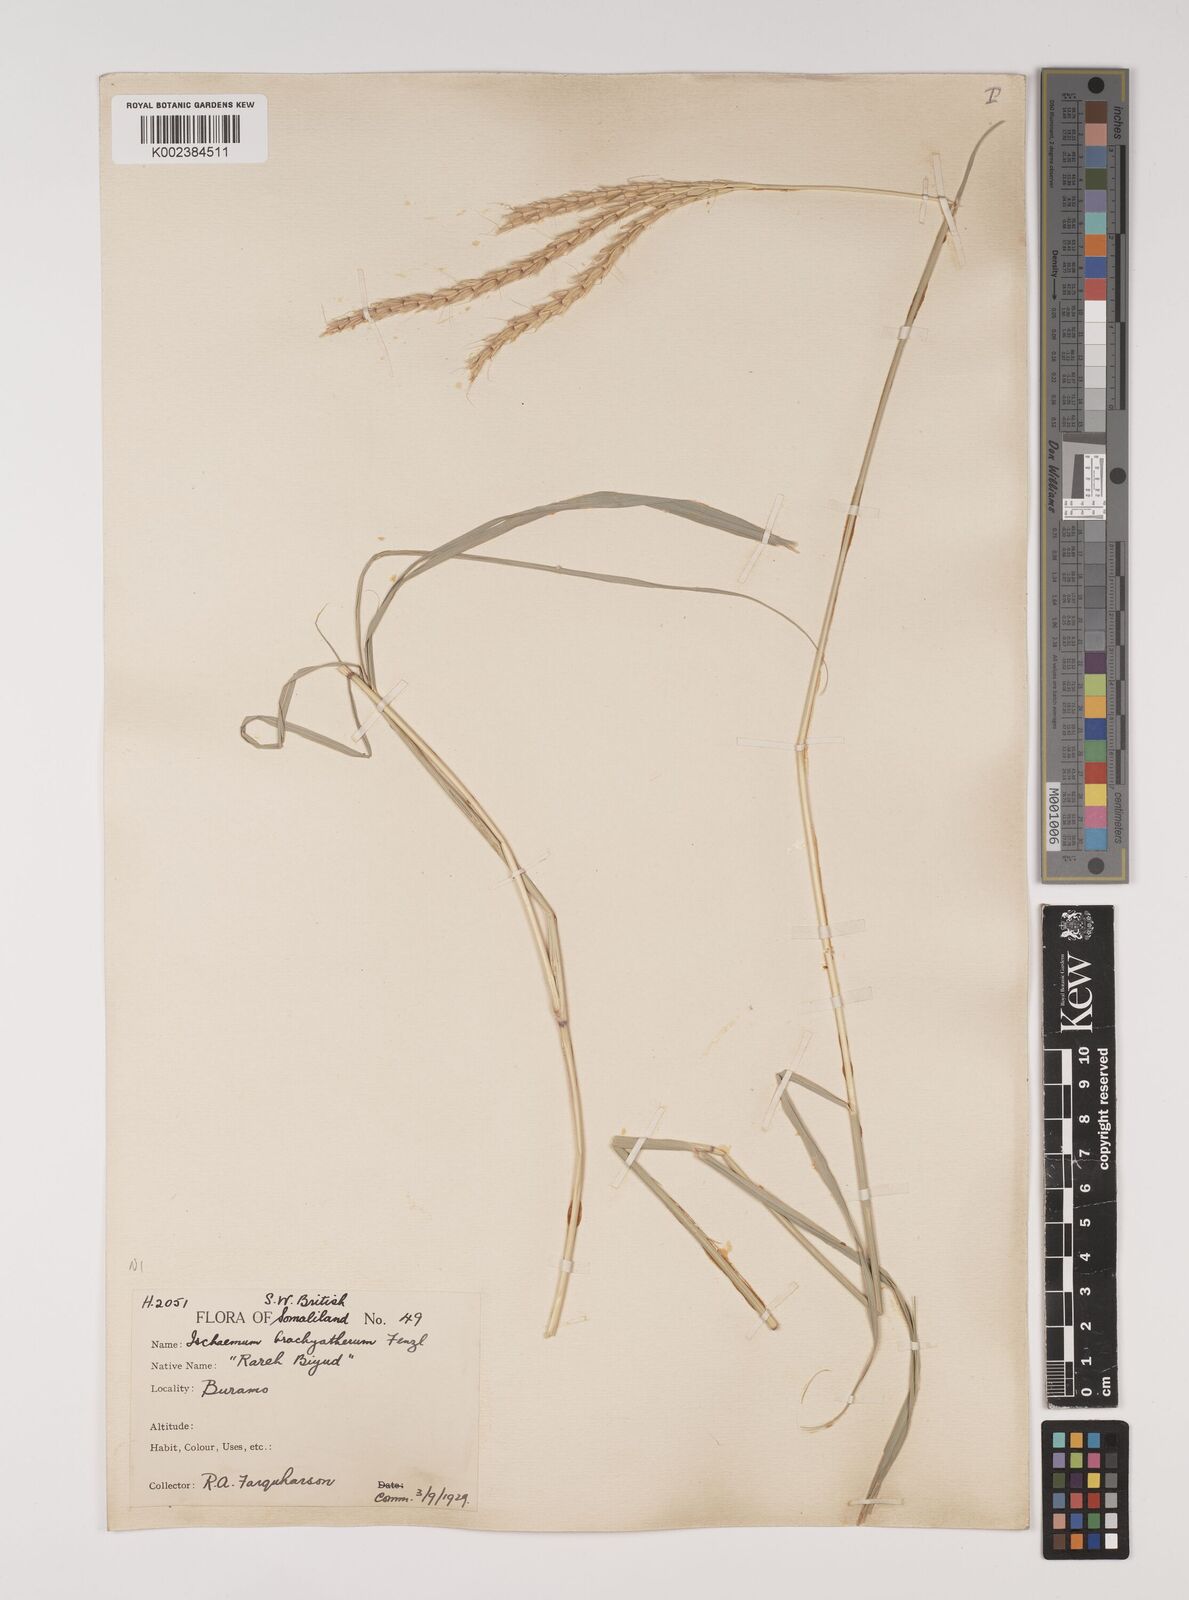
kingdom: Plantae
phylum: Tracheophyta
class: Liliopsida
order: Poales
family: Poaceae
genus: Ischaemum
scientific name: Ischaemum afrum
